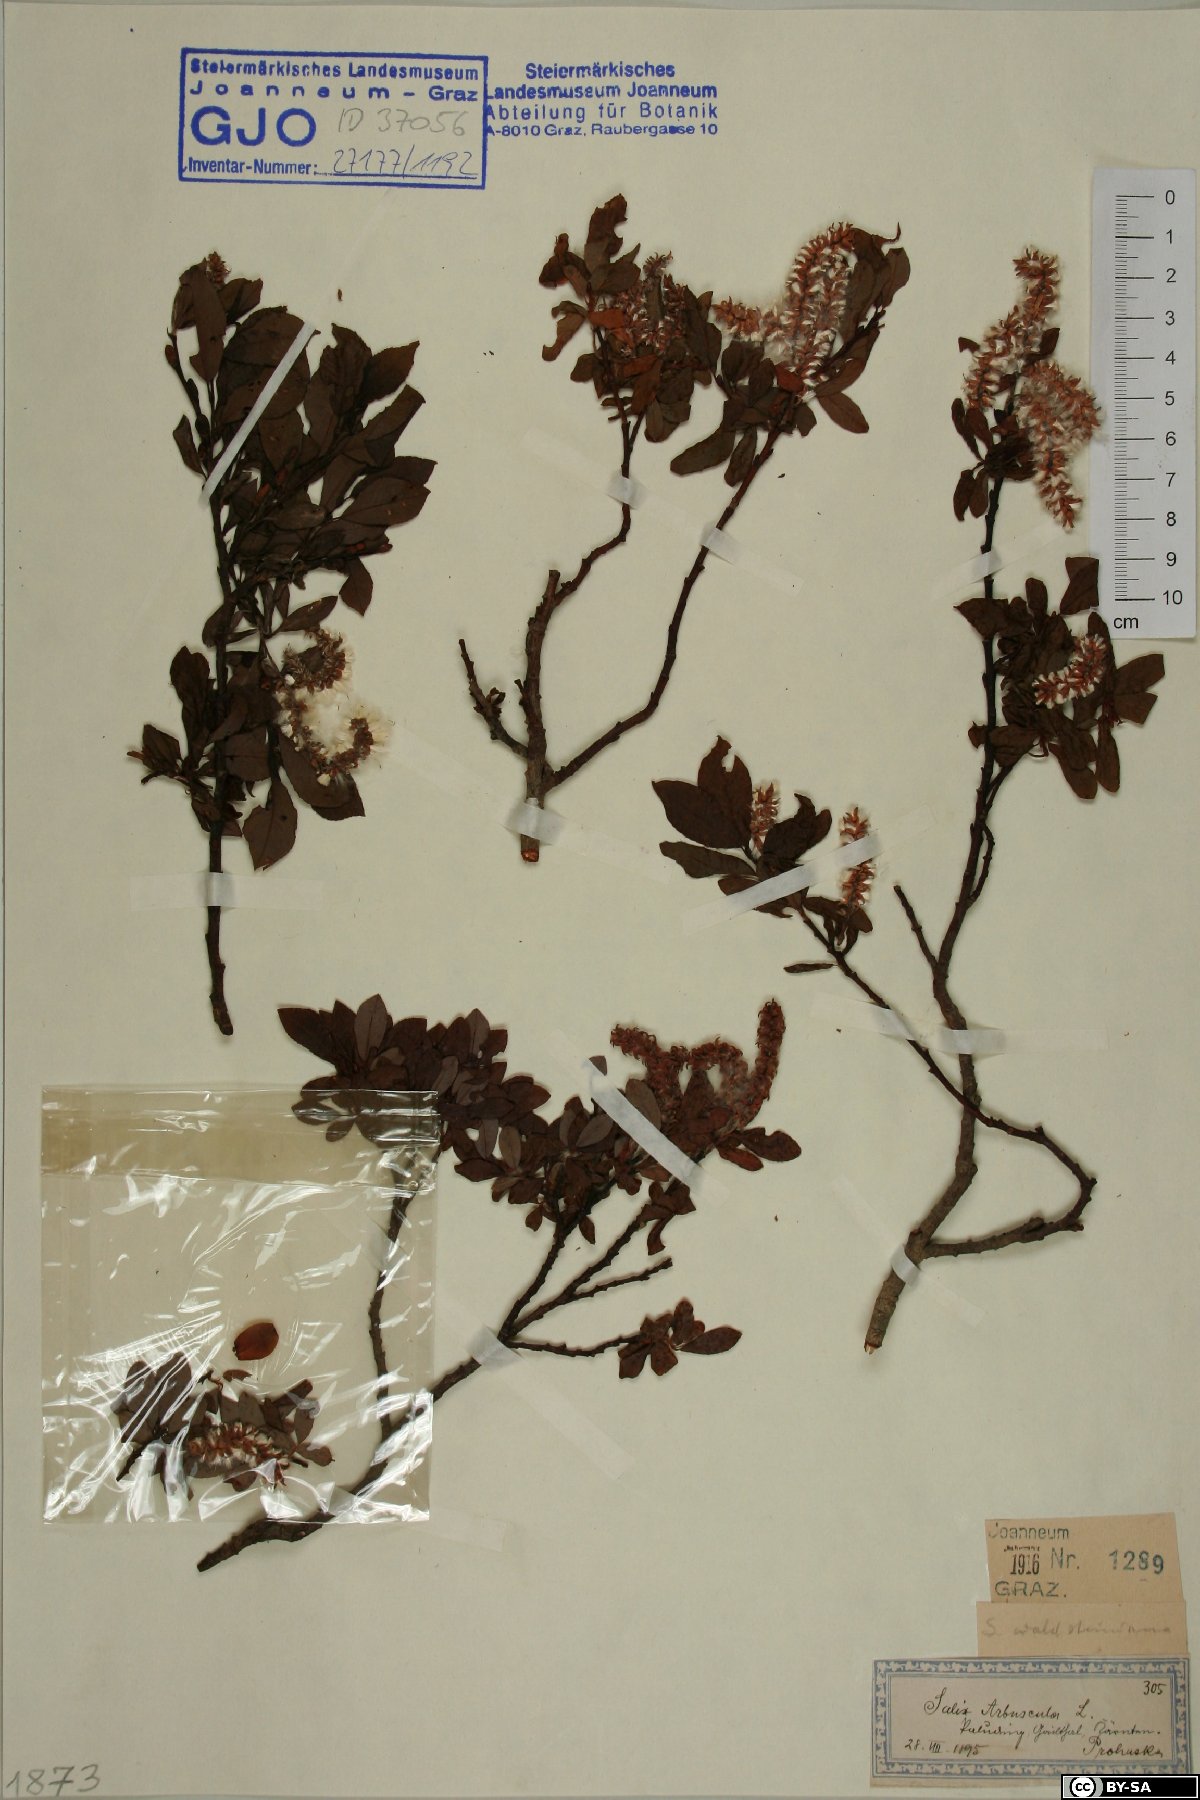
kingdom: Plantae
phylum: Tracheophyta
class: Magnoliopsida
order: Malpighiales
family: Salicaceae
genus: Salix
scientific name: Salix waldsteiniana
